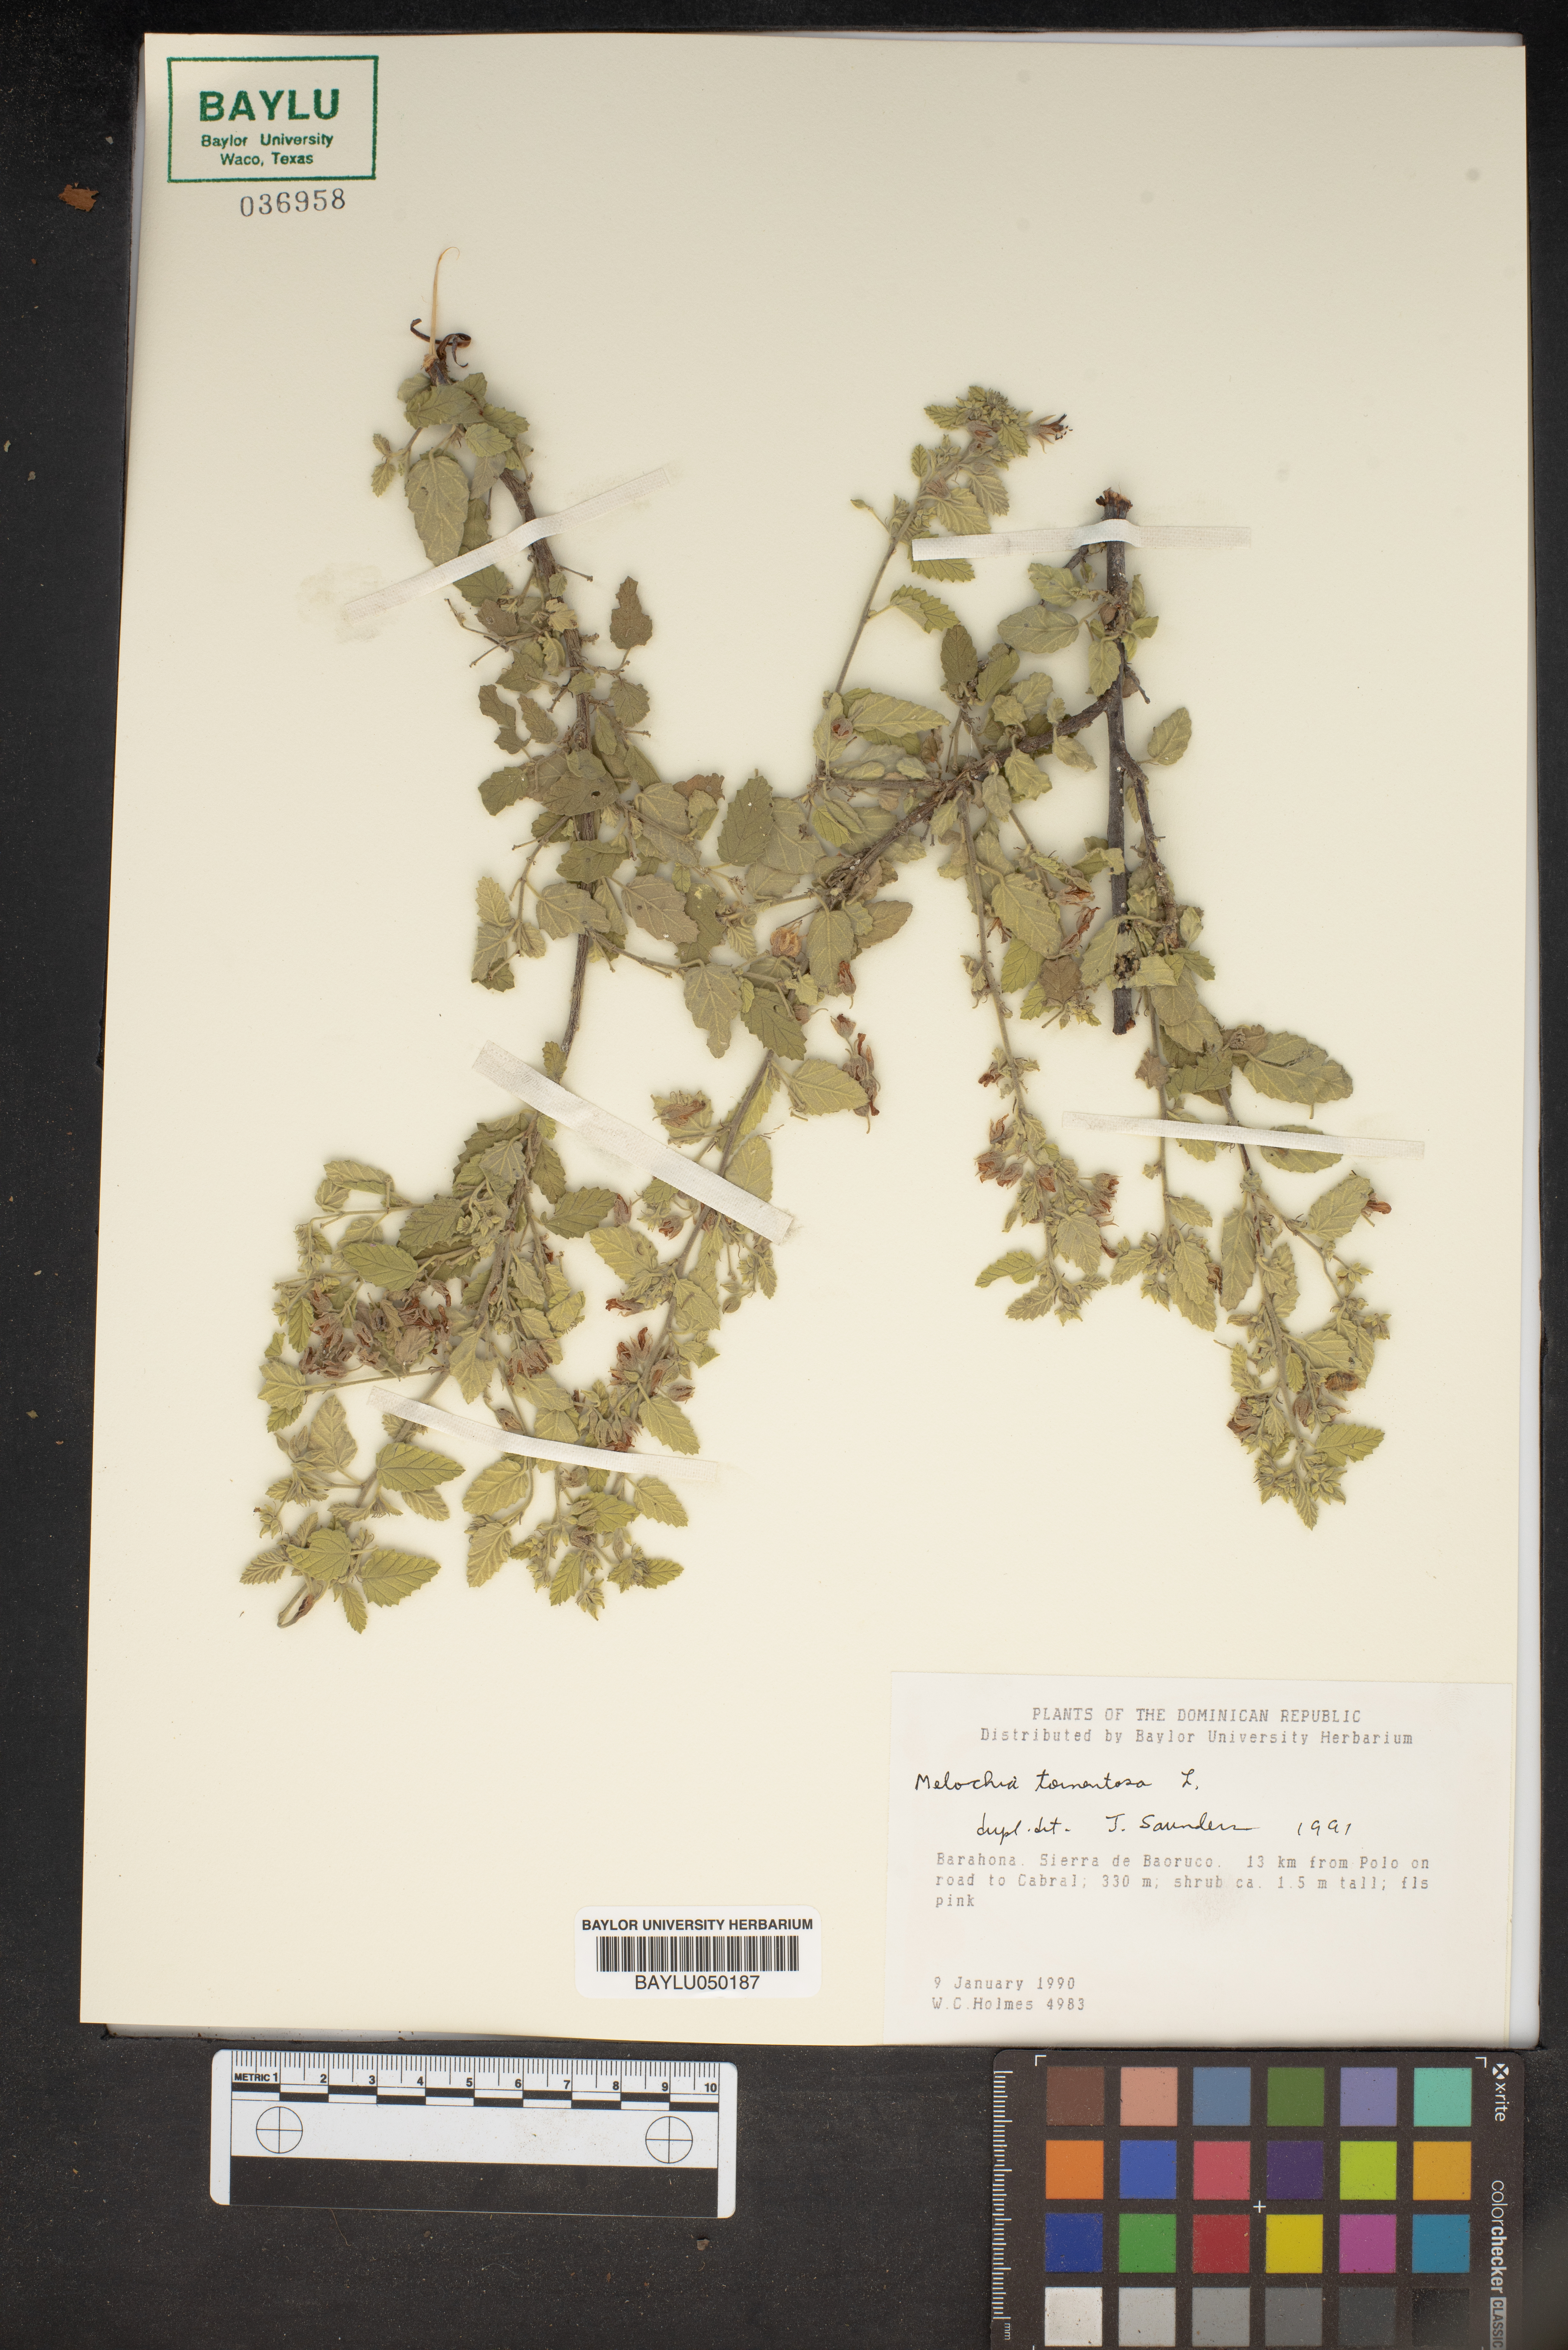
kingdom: Plantae
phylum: Tracheophyta
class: Magnoliopsida
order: Malvales
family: Malvaceae
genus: Melochia
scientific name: Melochia tomentosa
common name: Black torch
